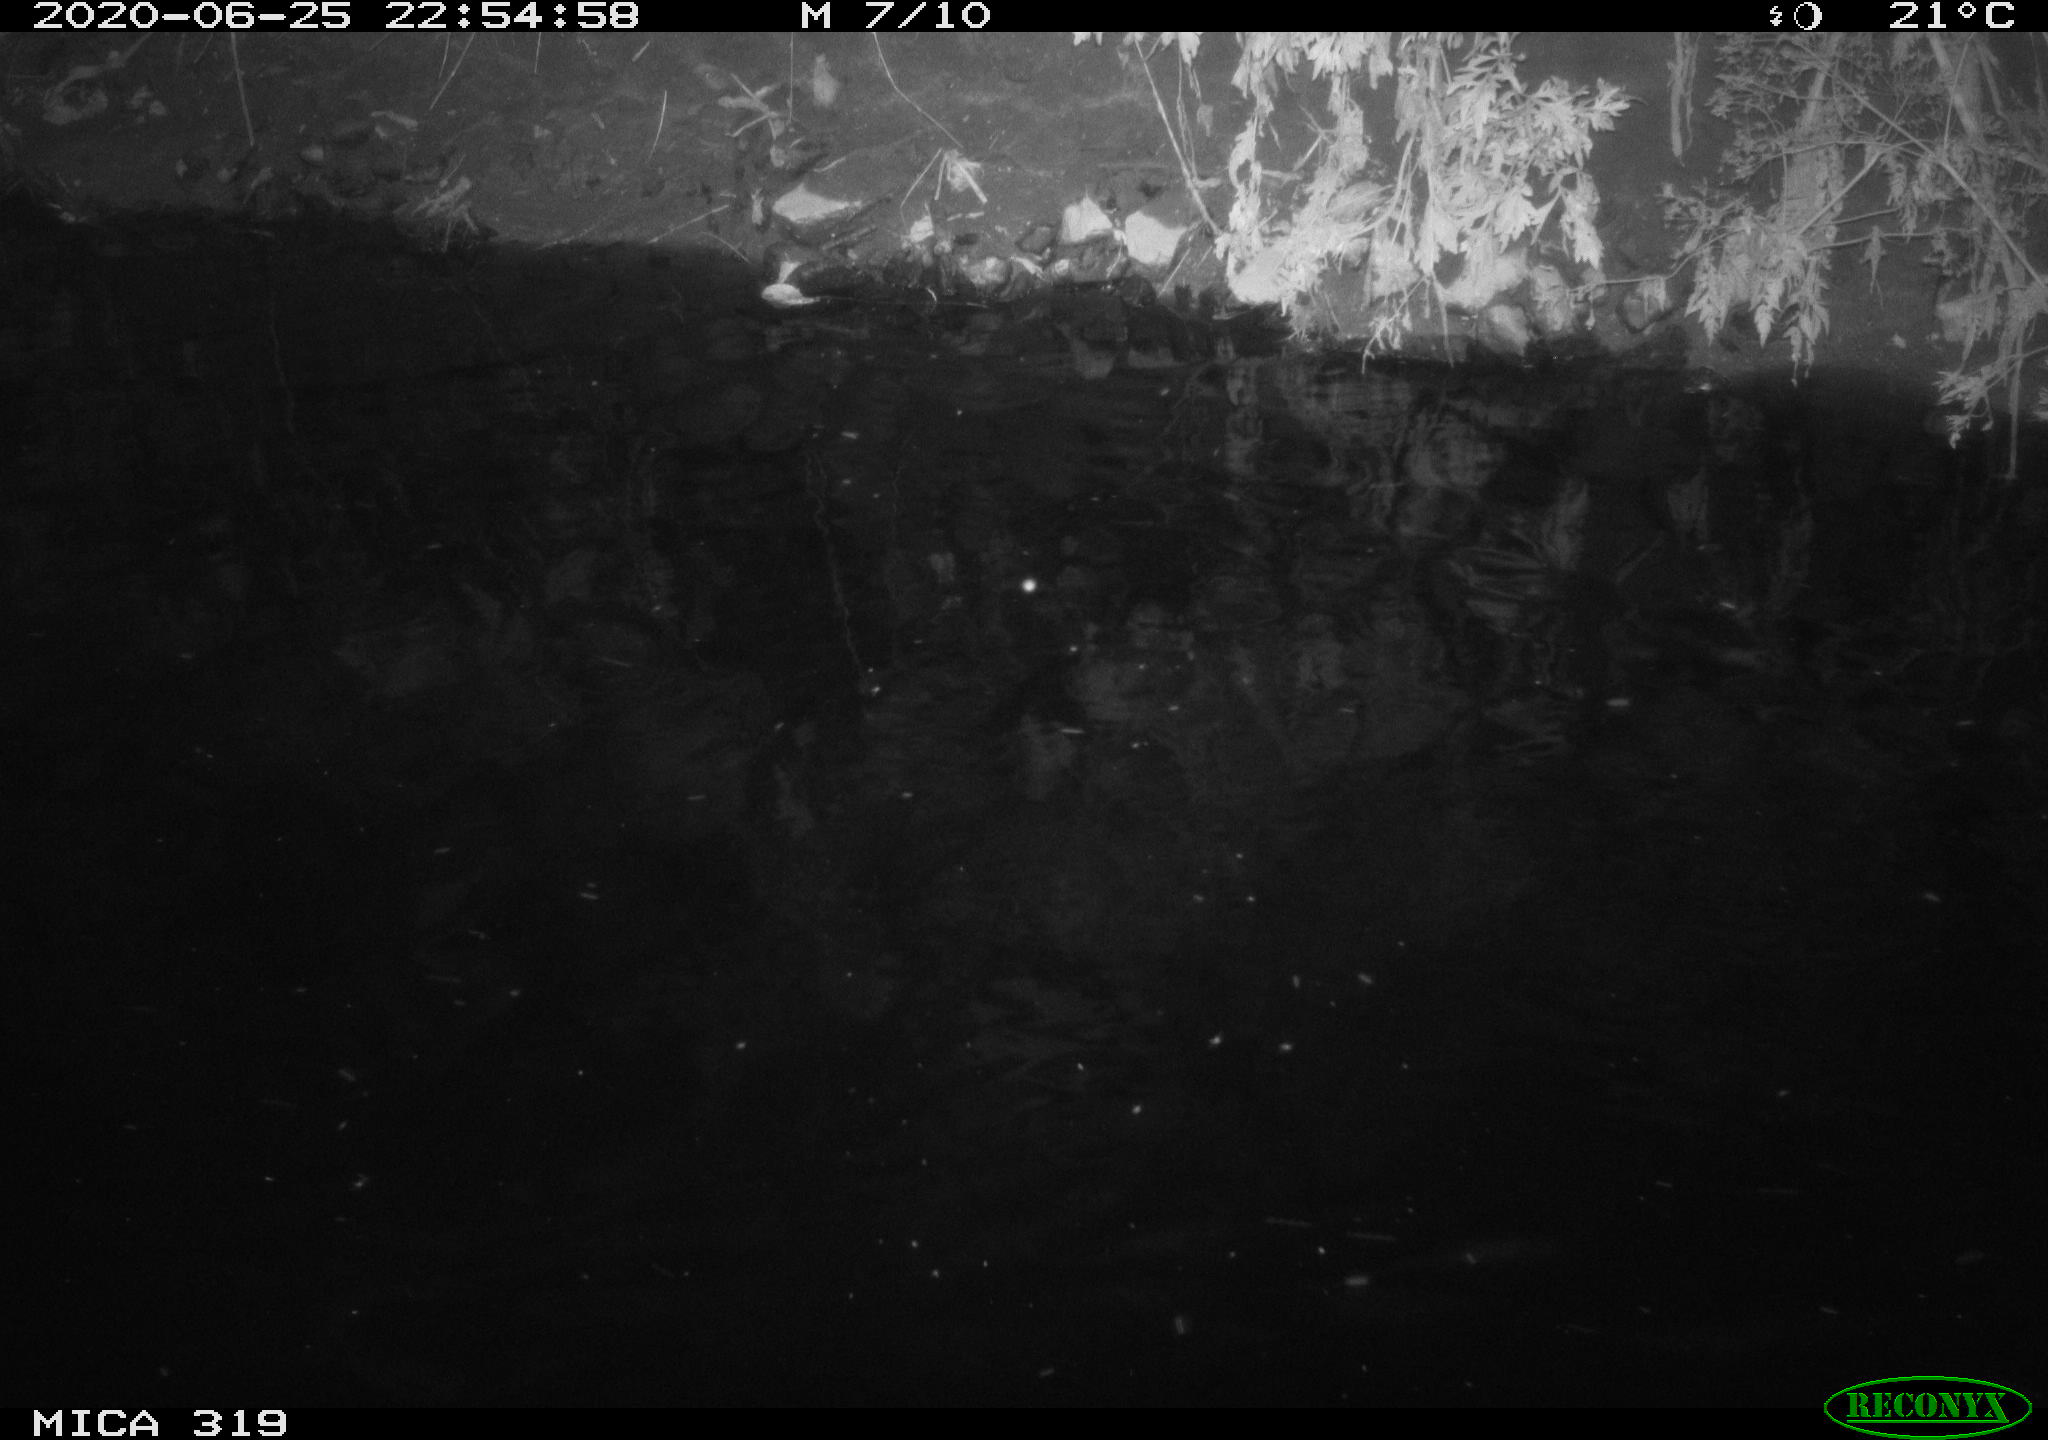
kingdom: Animalia
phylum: Chordata
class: Aves
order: Anseriformes
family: Anatidae
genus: Anas
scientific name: Anas platyrhynchos
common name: Mallard
